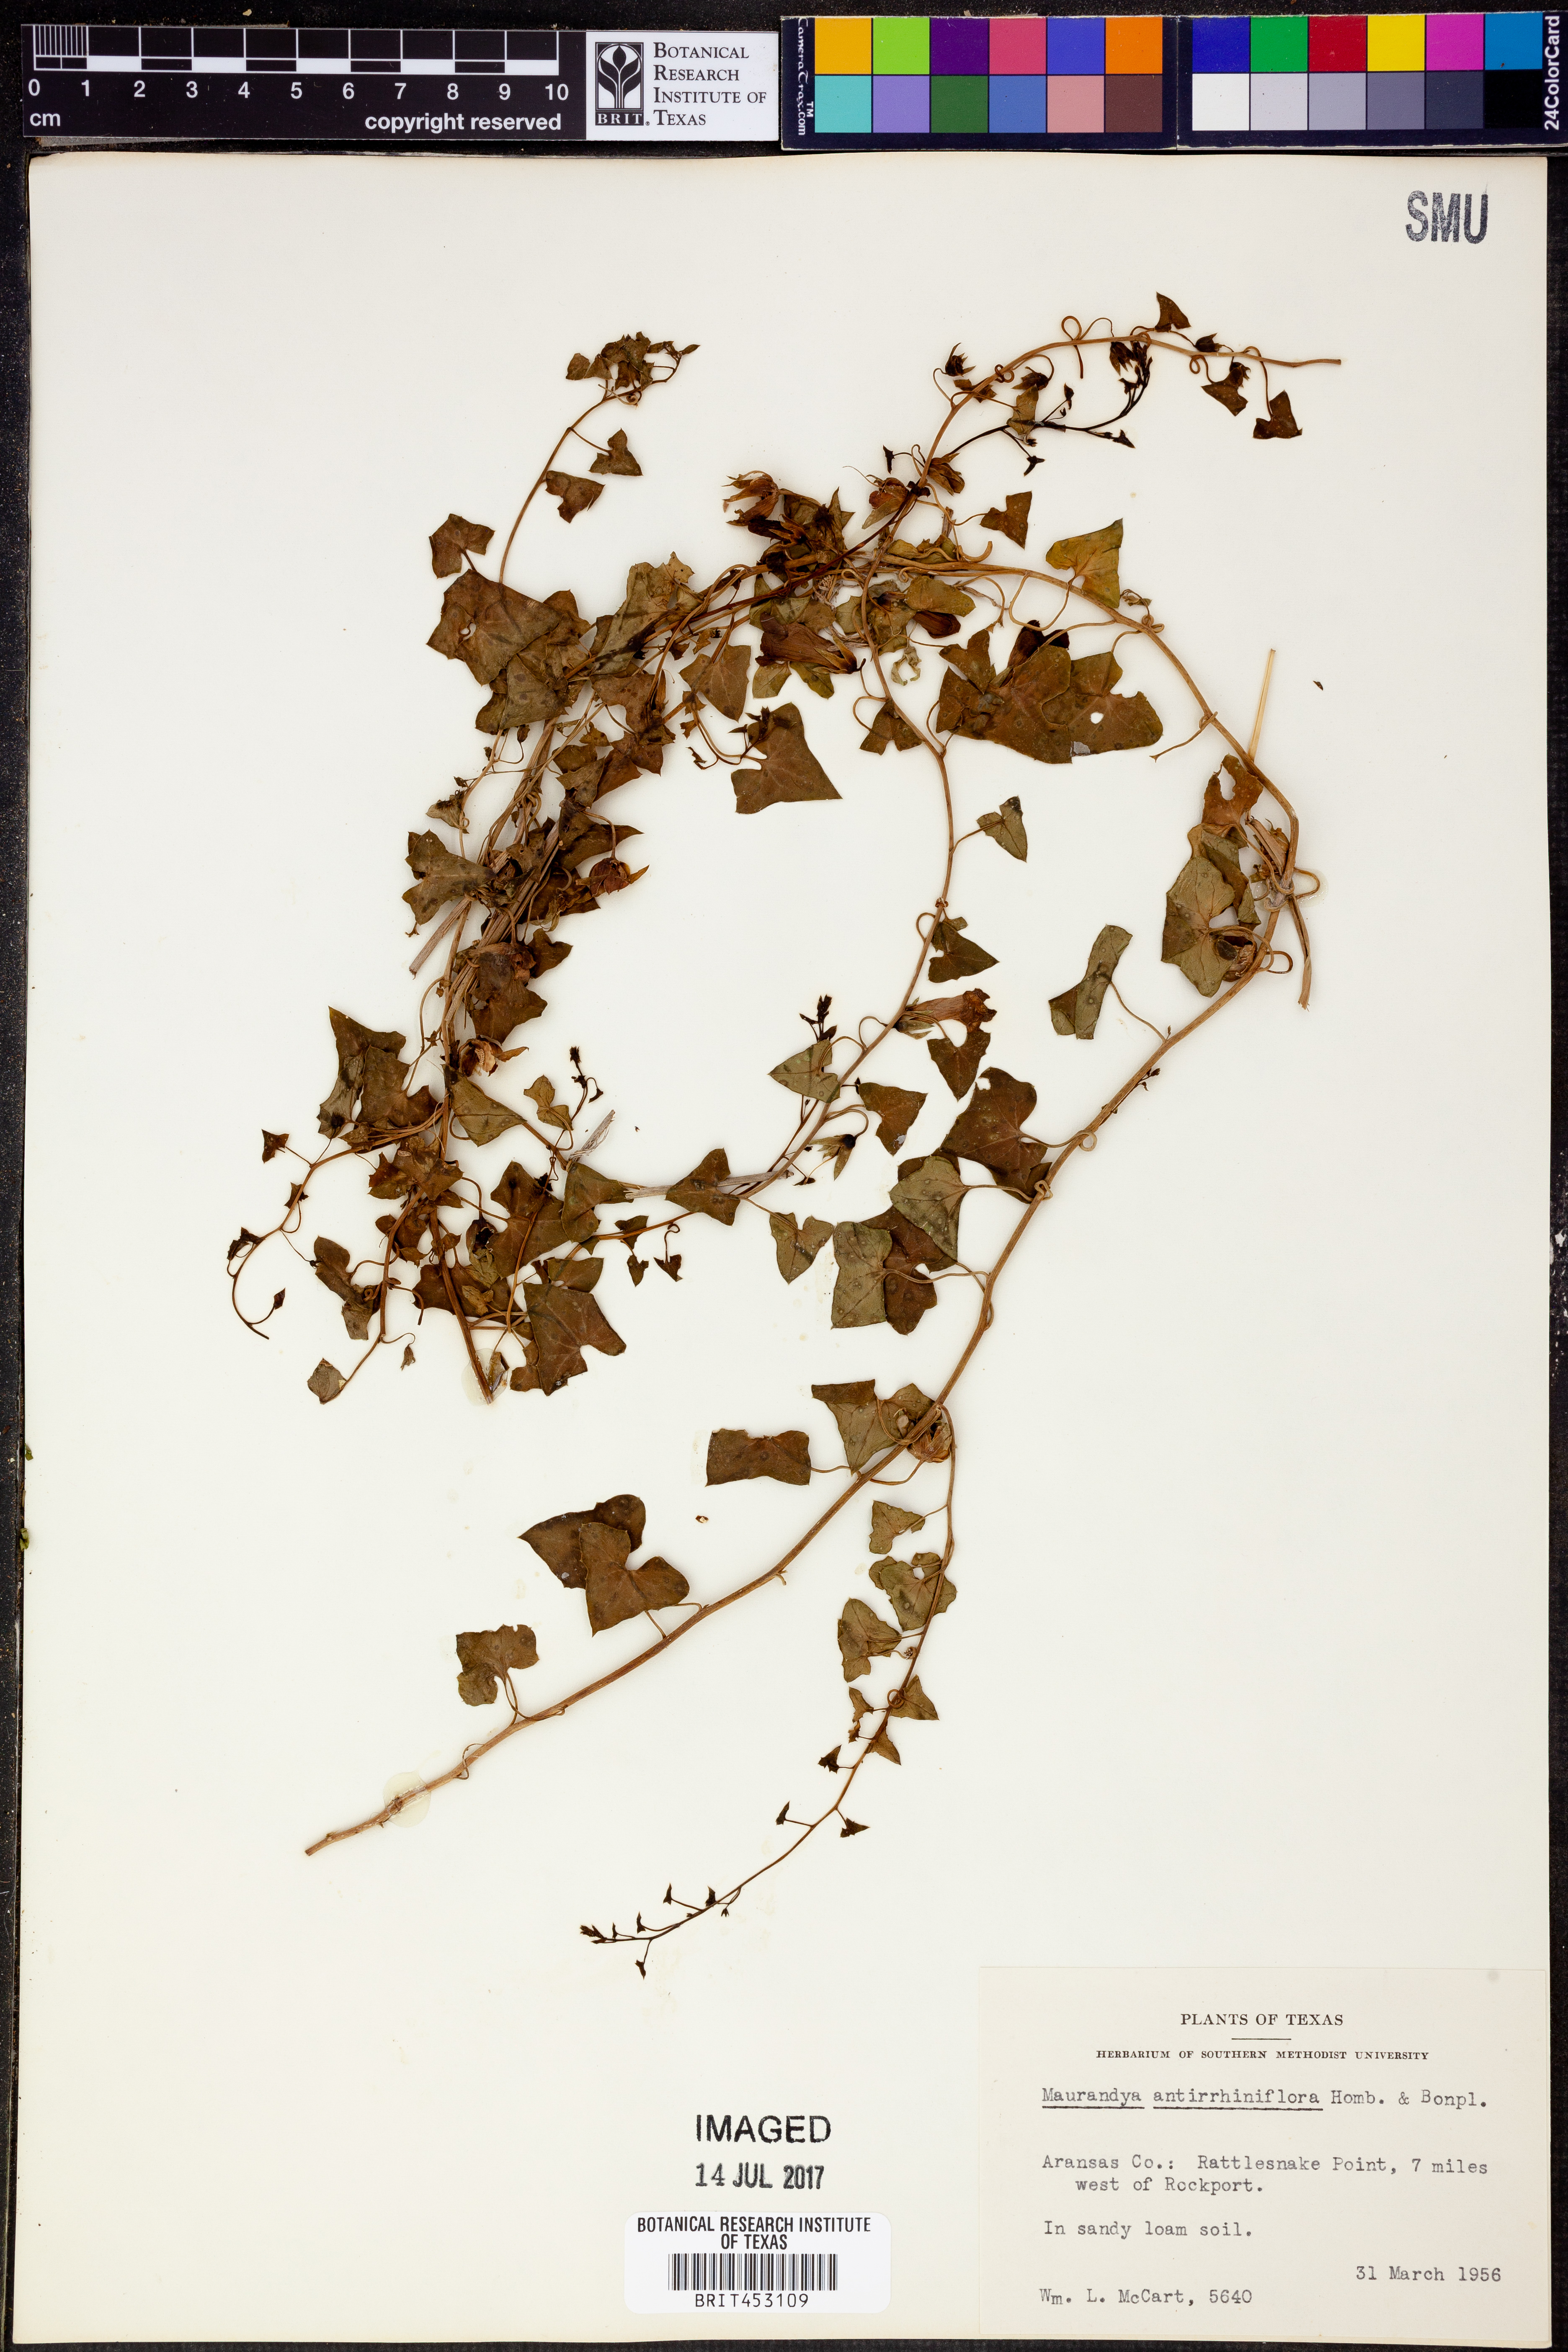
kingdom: Plantae
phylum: Tracheophyta
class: Magnoliopsida
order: Lamiales
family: Plantaginaceae
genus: Maurandella
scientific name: Maurandella antirrhiniflora
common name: Violet twining-snapdragon
